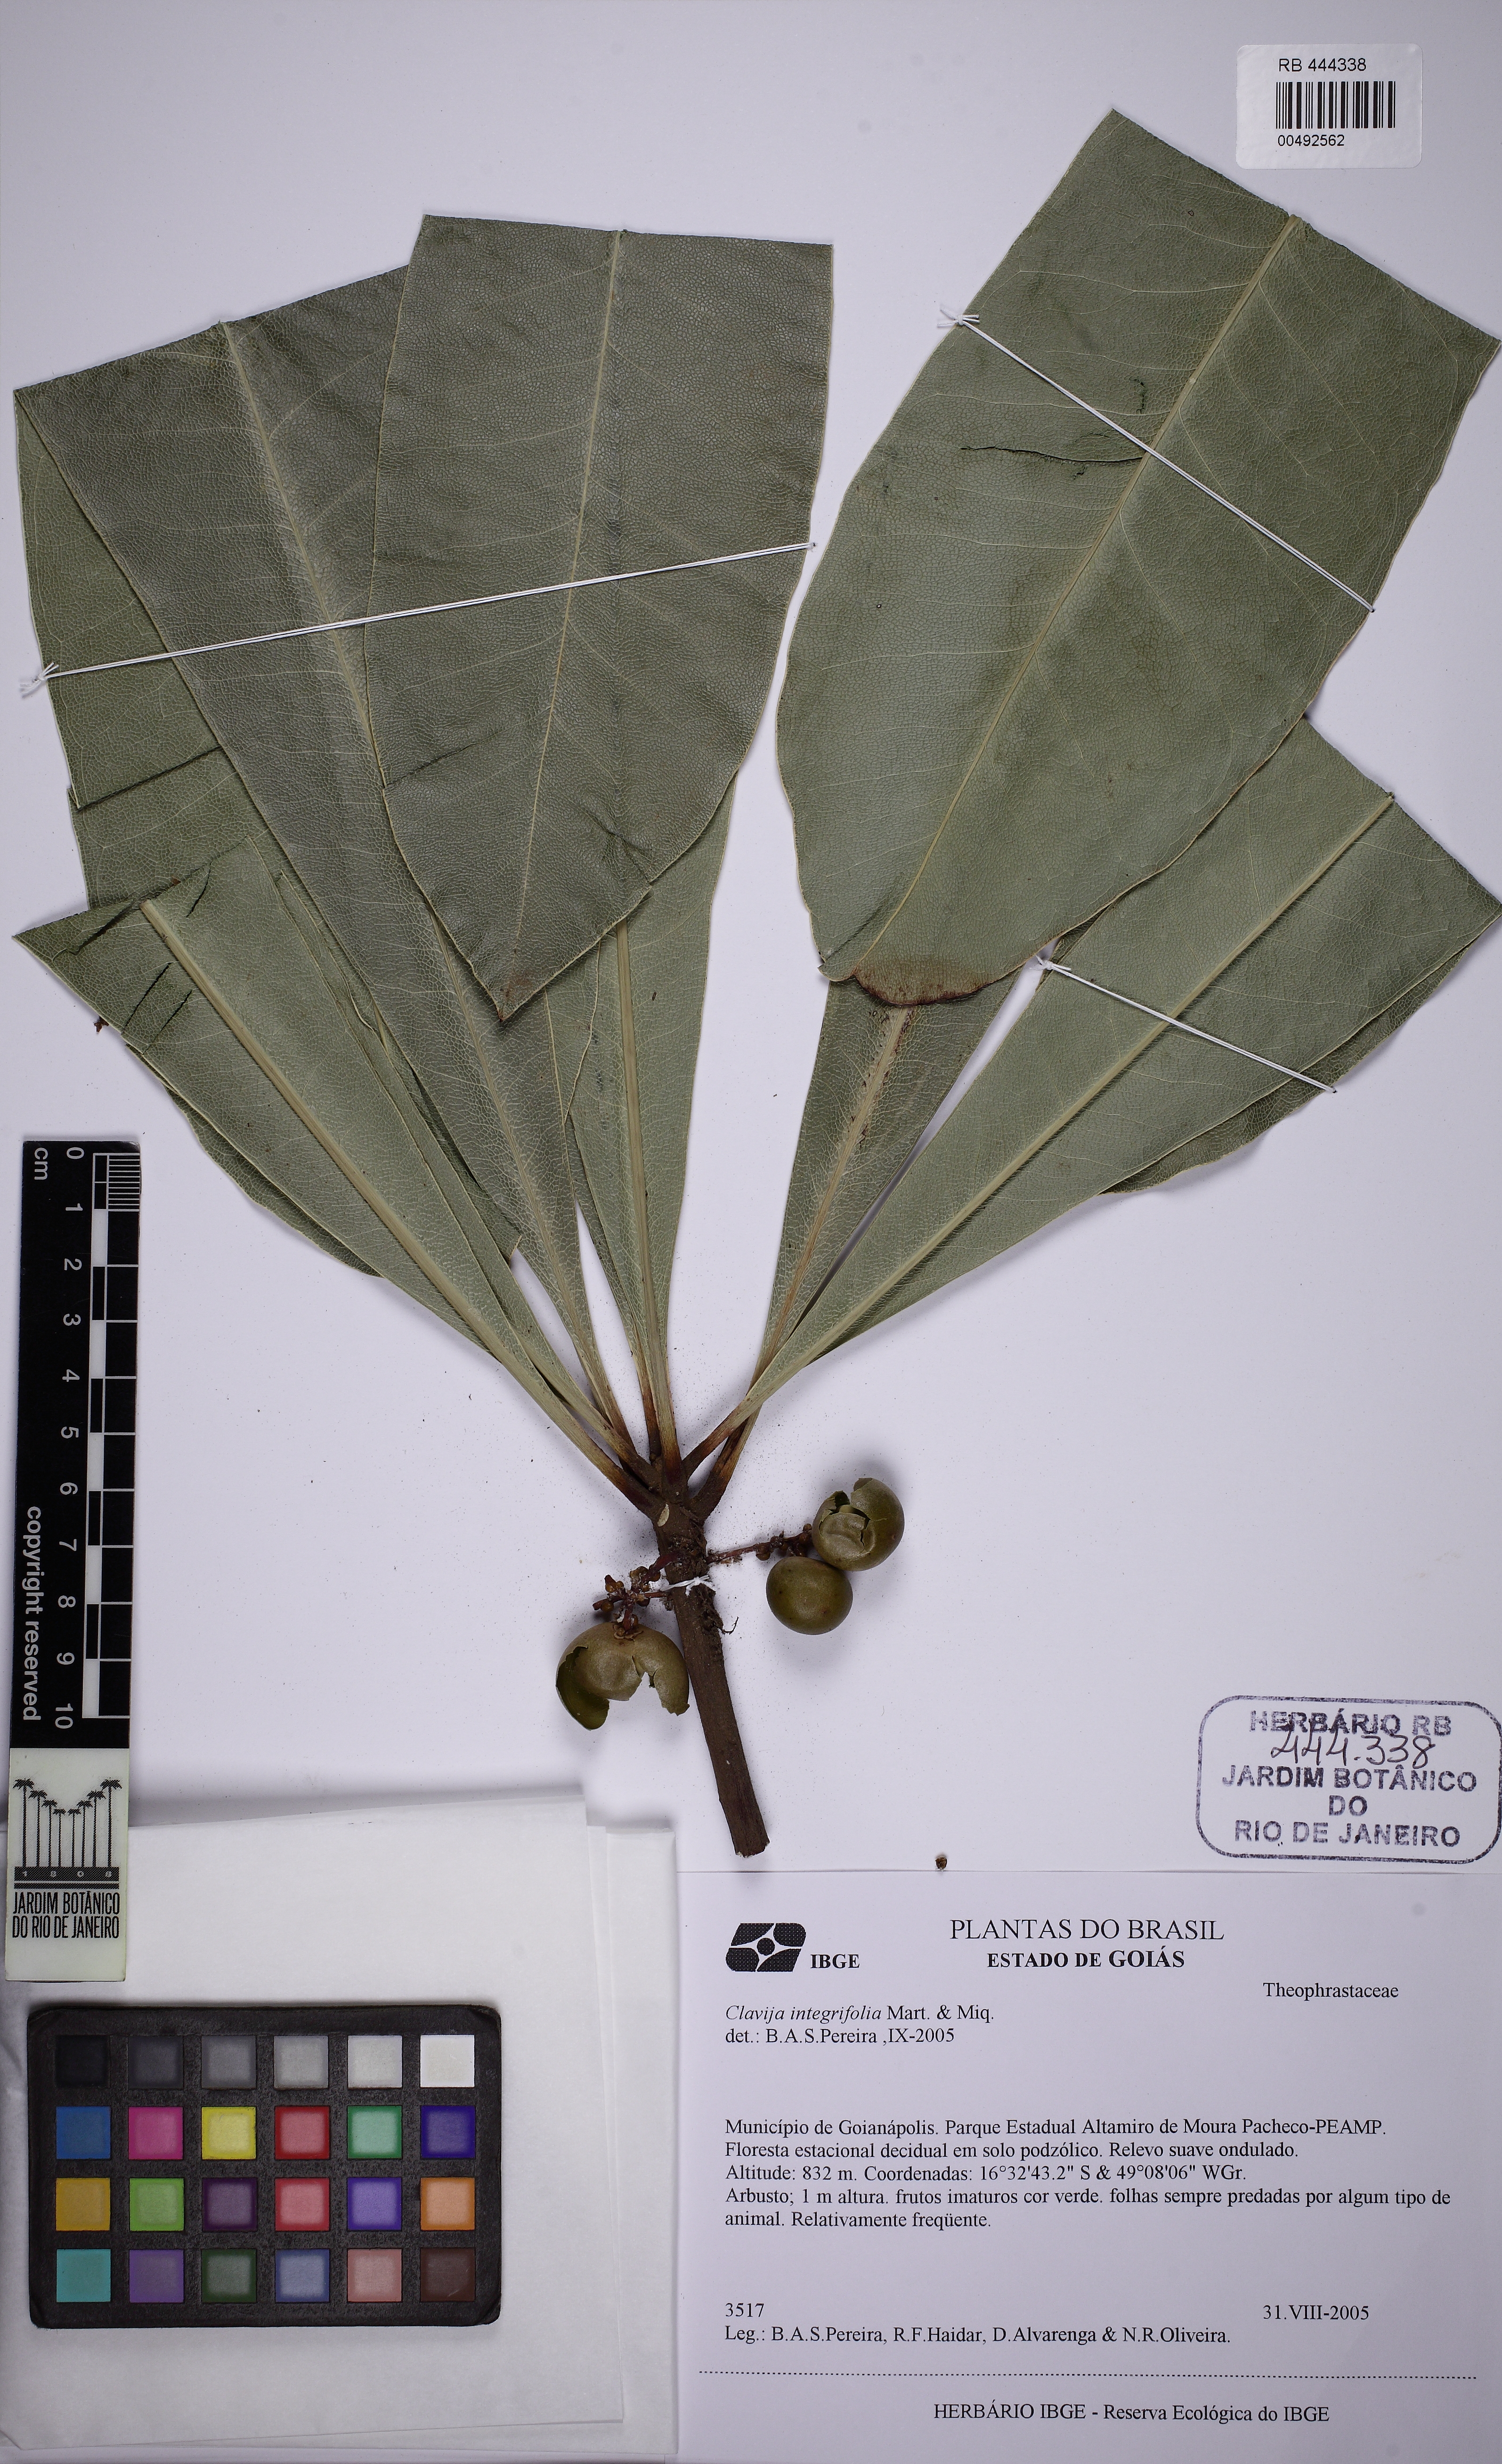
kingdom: Plantae
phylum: Tracheophyta
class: Magnoliopsida
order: Ericales
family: Primulaceae
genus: Clavija
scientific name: Clavija nutans
